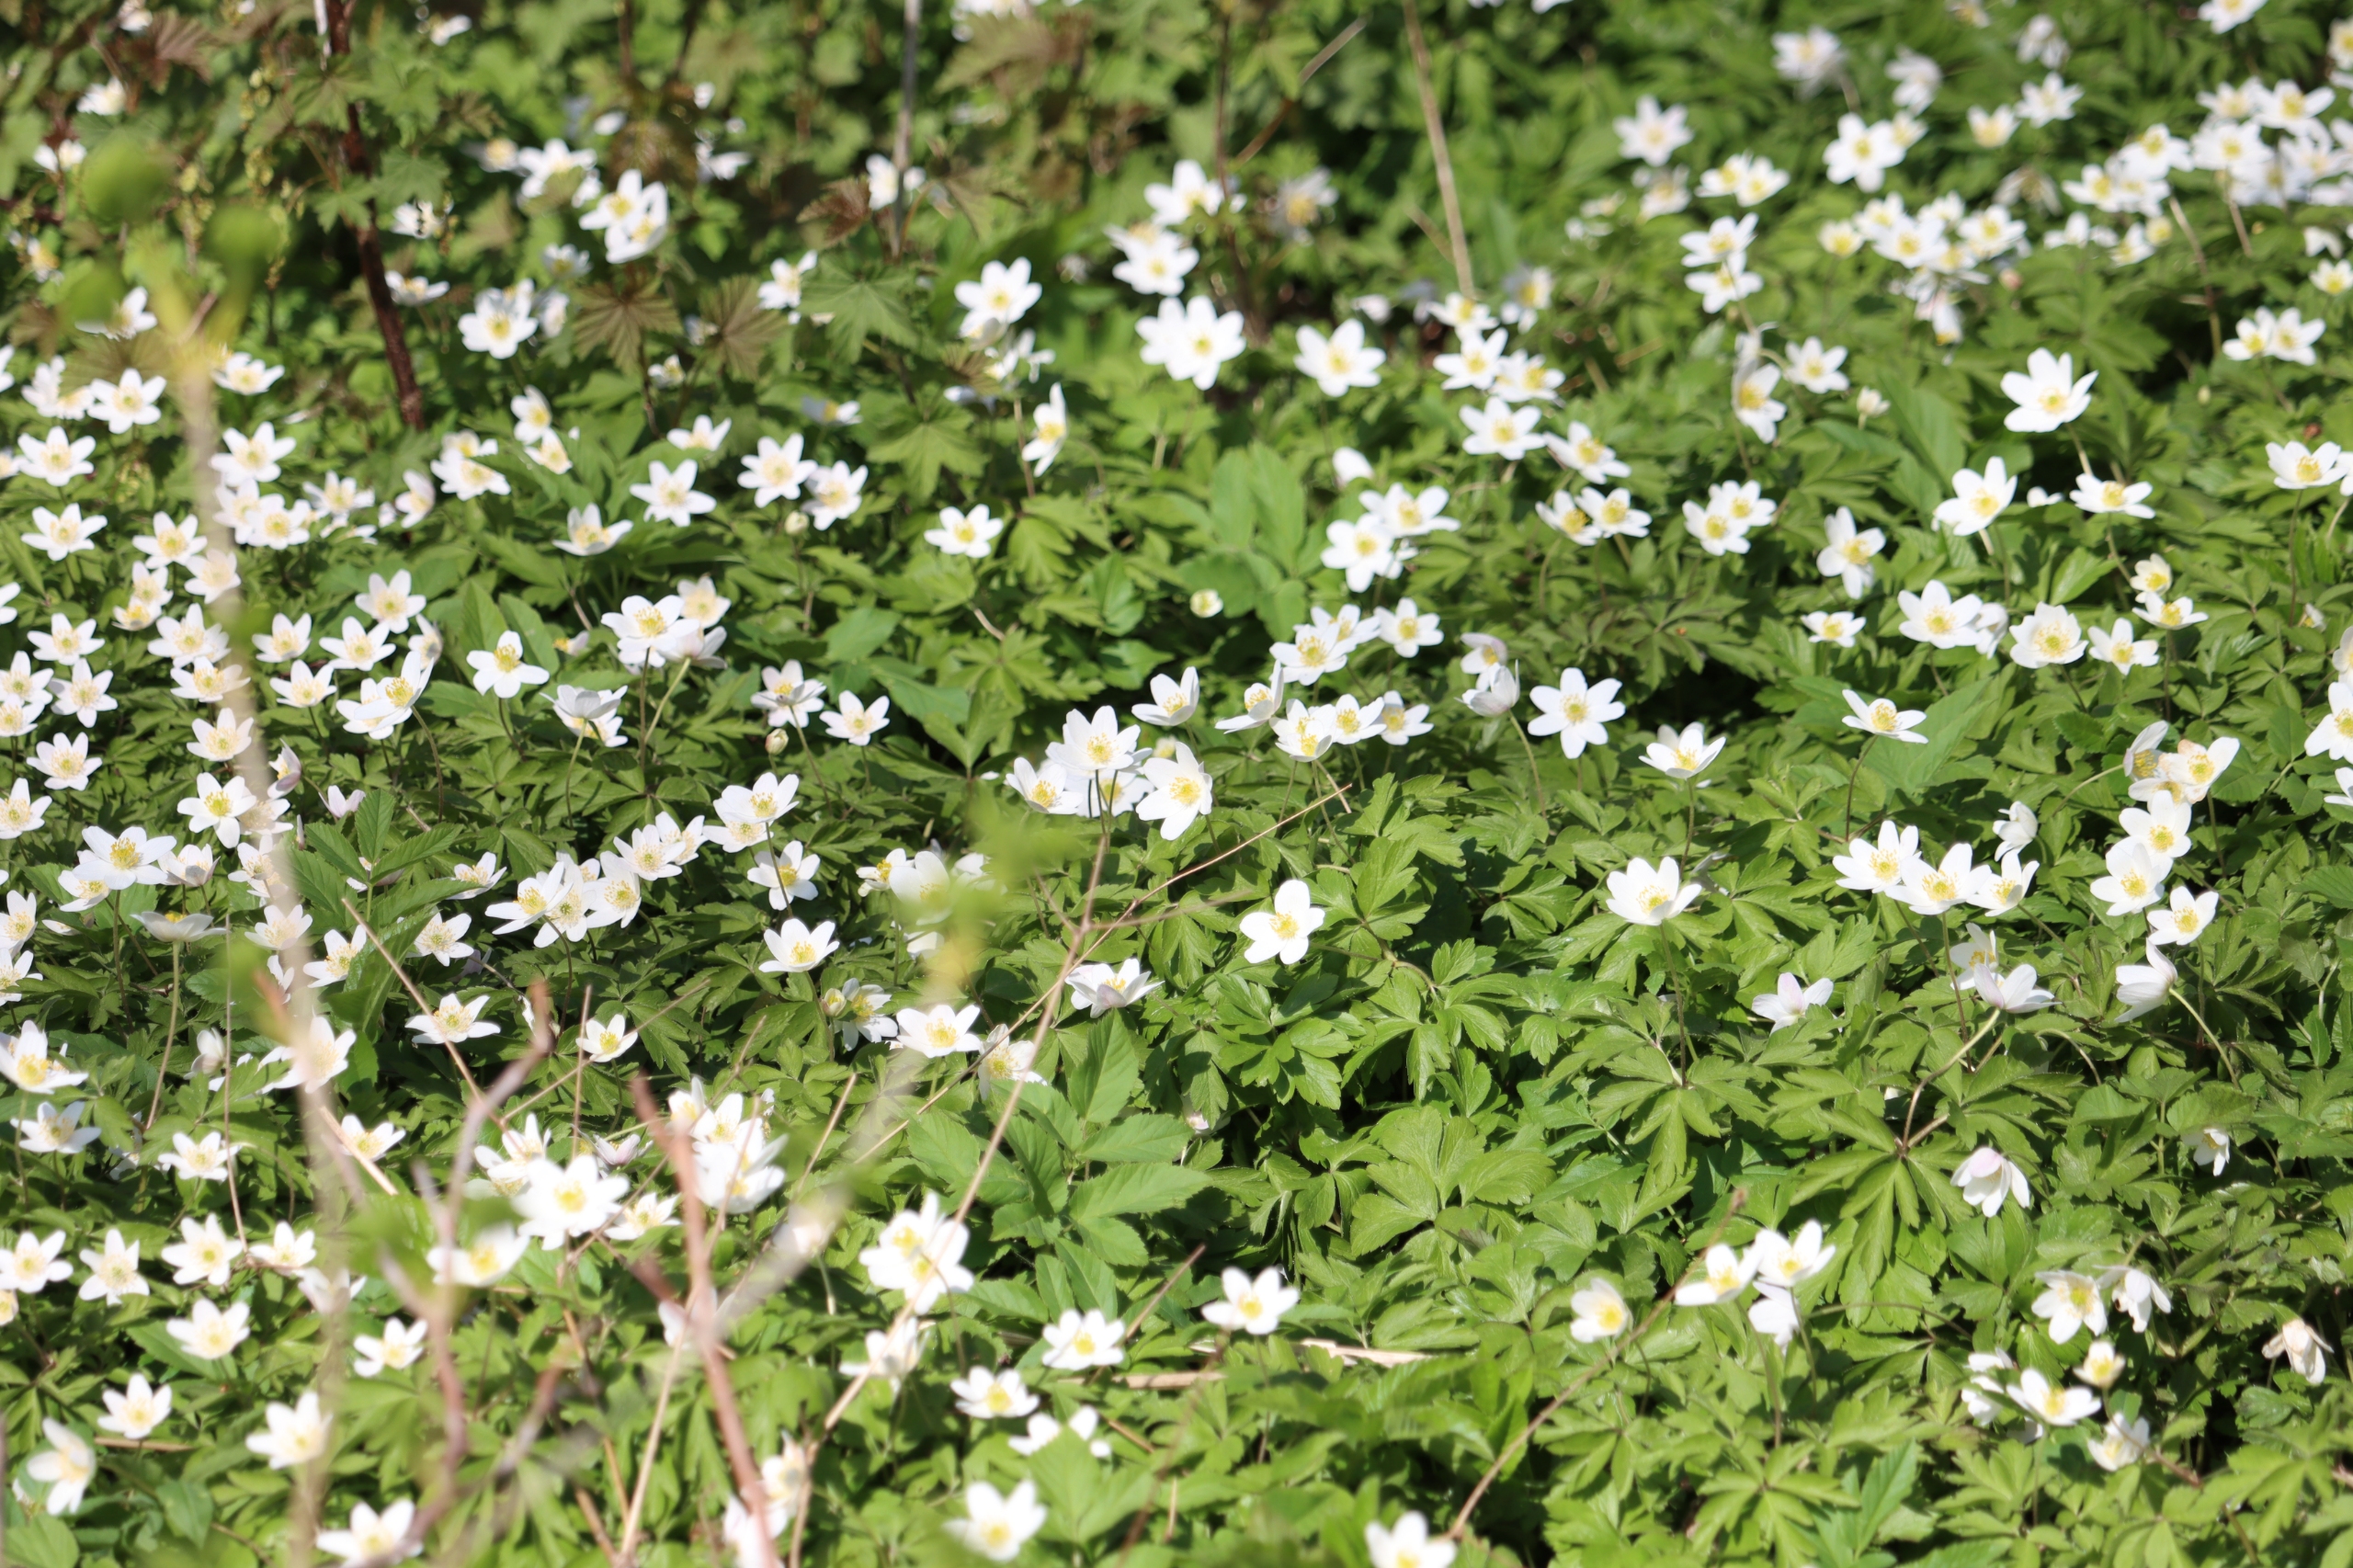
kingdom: Plantae
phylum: Tracheophyta
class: Magnoliopsida
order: Ranunculales
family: Ranunculaceae
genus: Anemone
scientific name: Anemone nemorosa
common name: Hvid anemone
